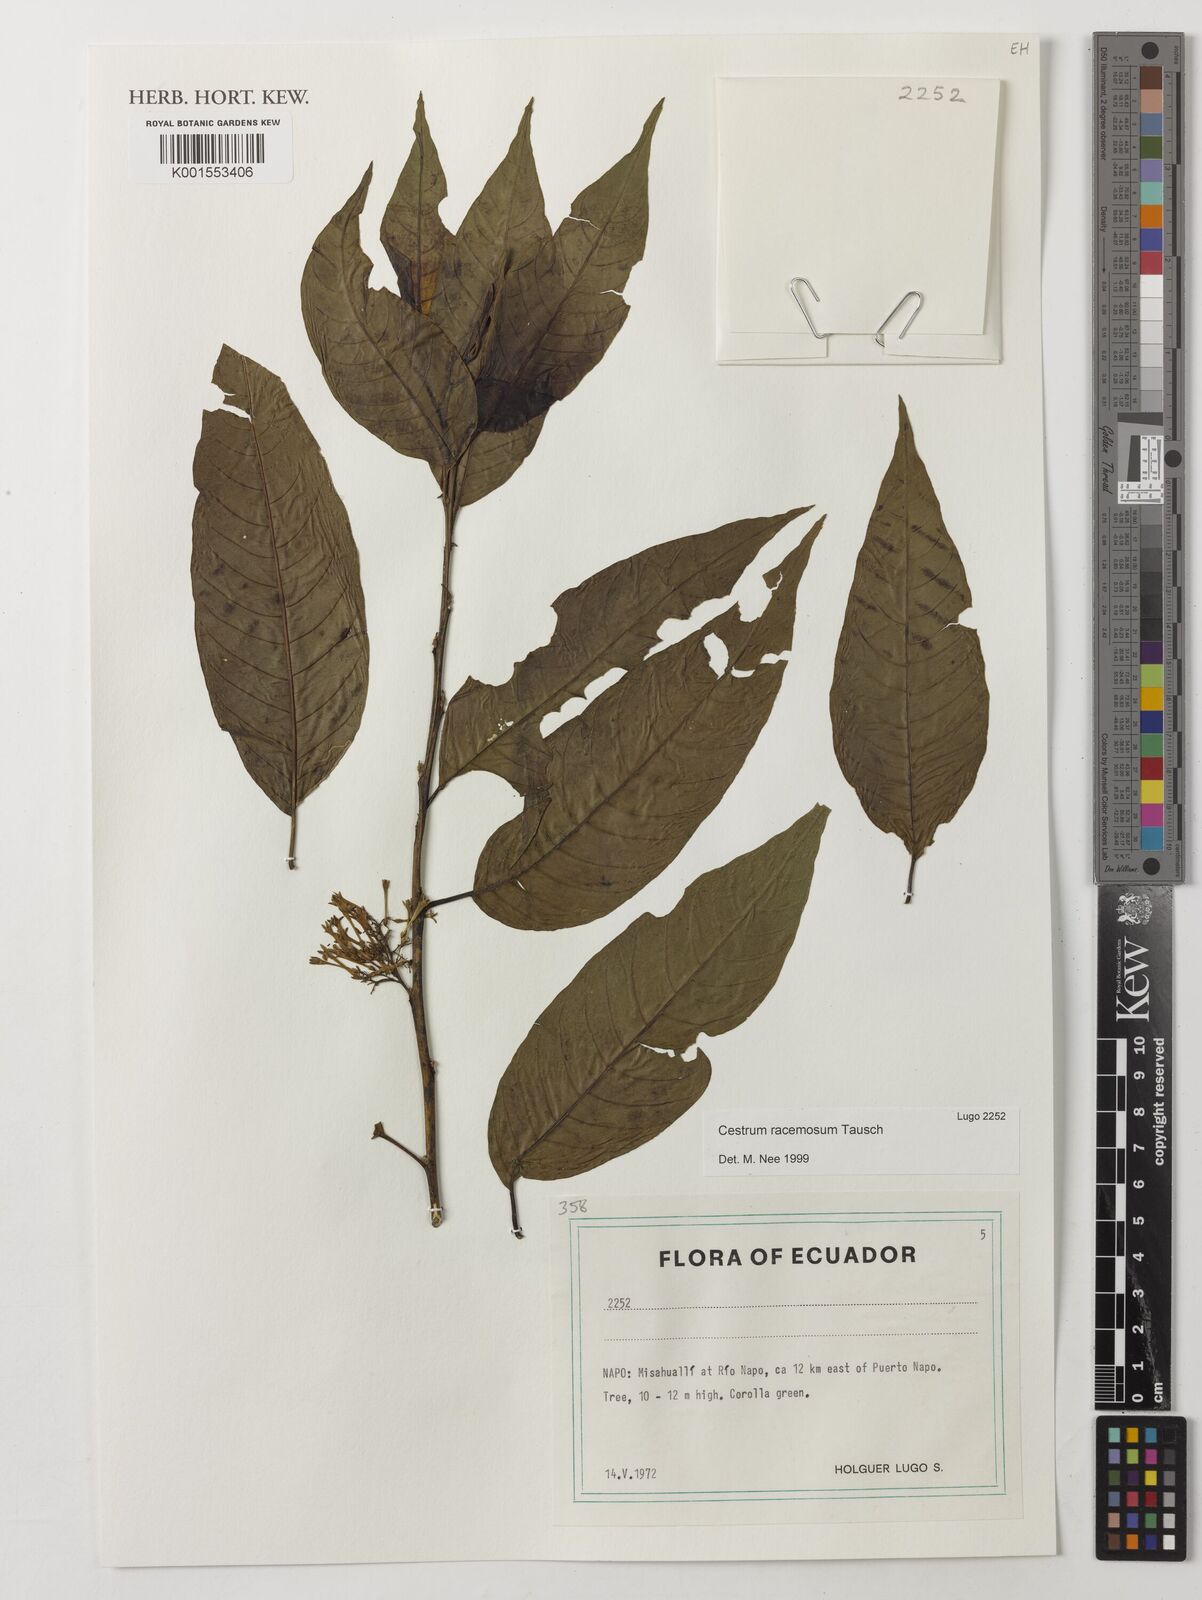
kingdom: Plantae
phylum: Tracheophyta
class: Magnoliopsida
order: Solanales
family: Solanaceae
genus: Cestrum
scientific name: Cestrum lindenii
